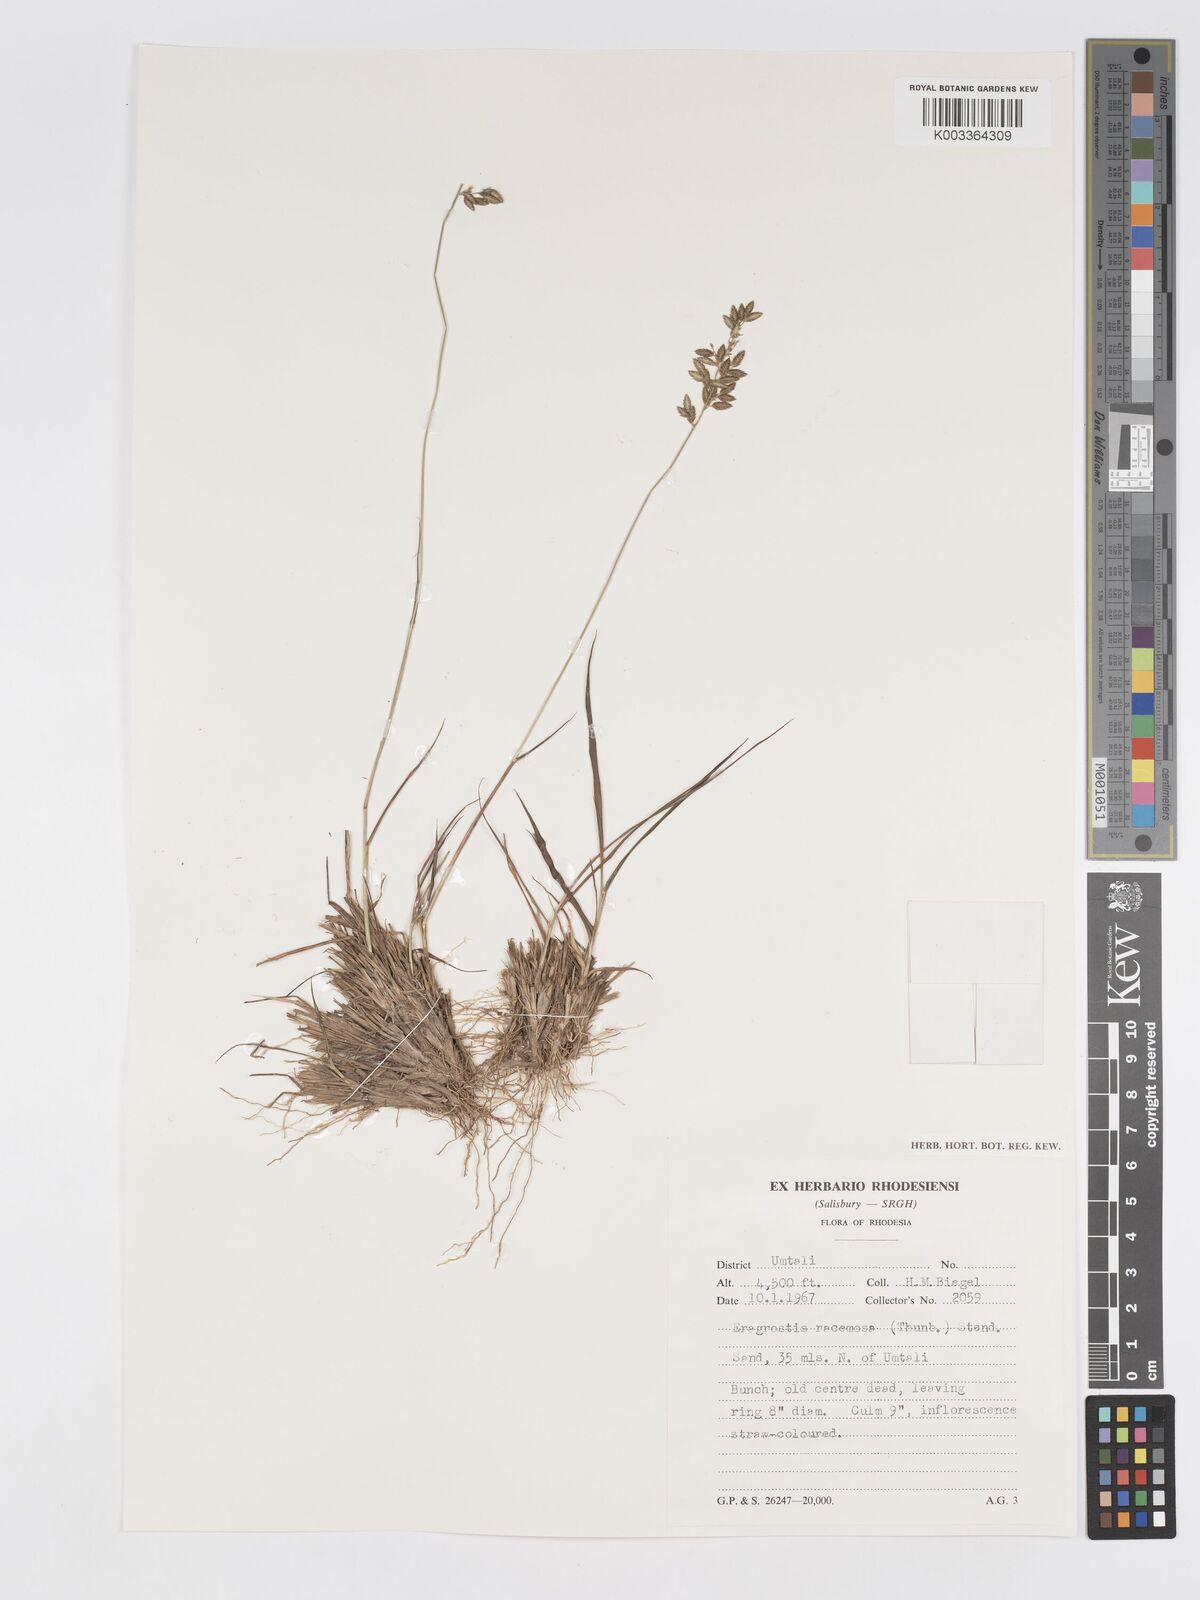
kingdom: Plantae
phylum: Tracheophyta
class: Liliopsida
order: Poales
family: Poaceae
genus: Eragrostis
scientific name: Eragrostis racemosa
